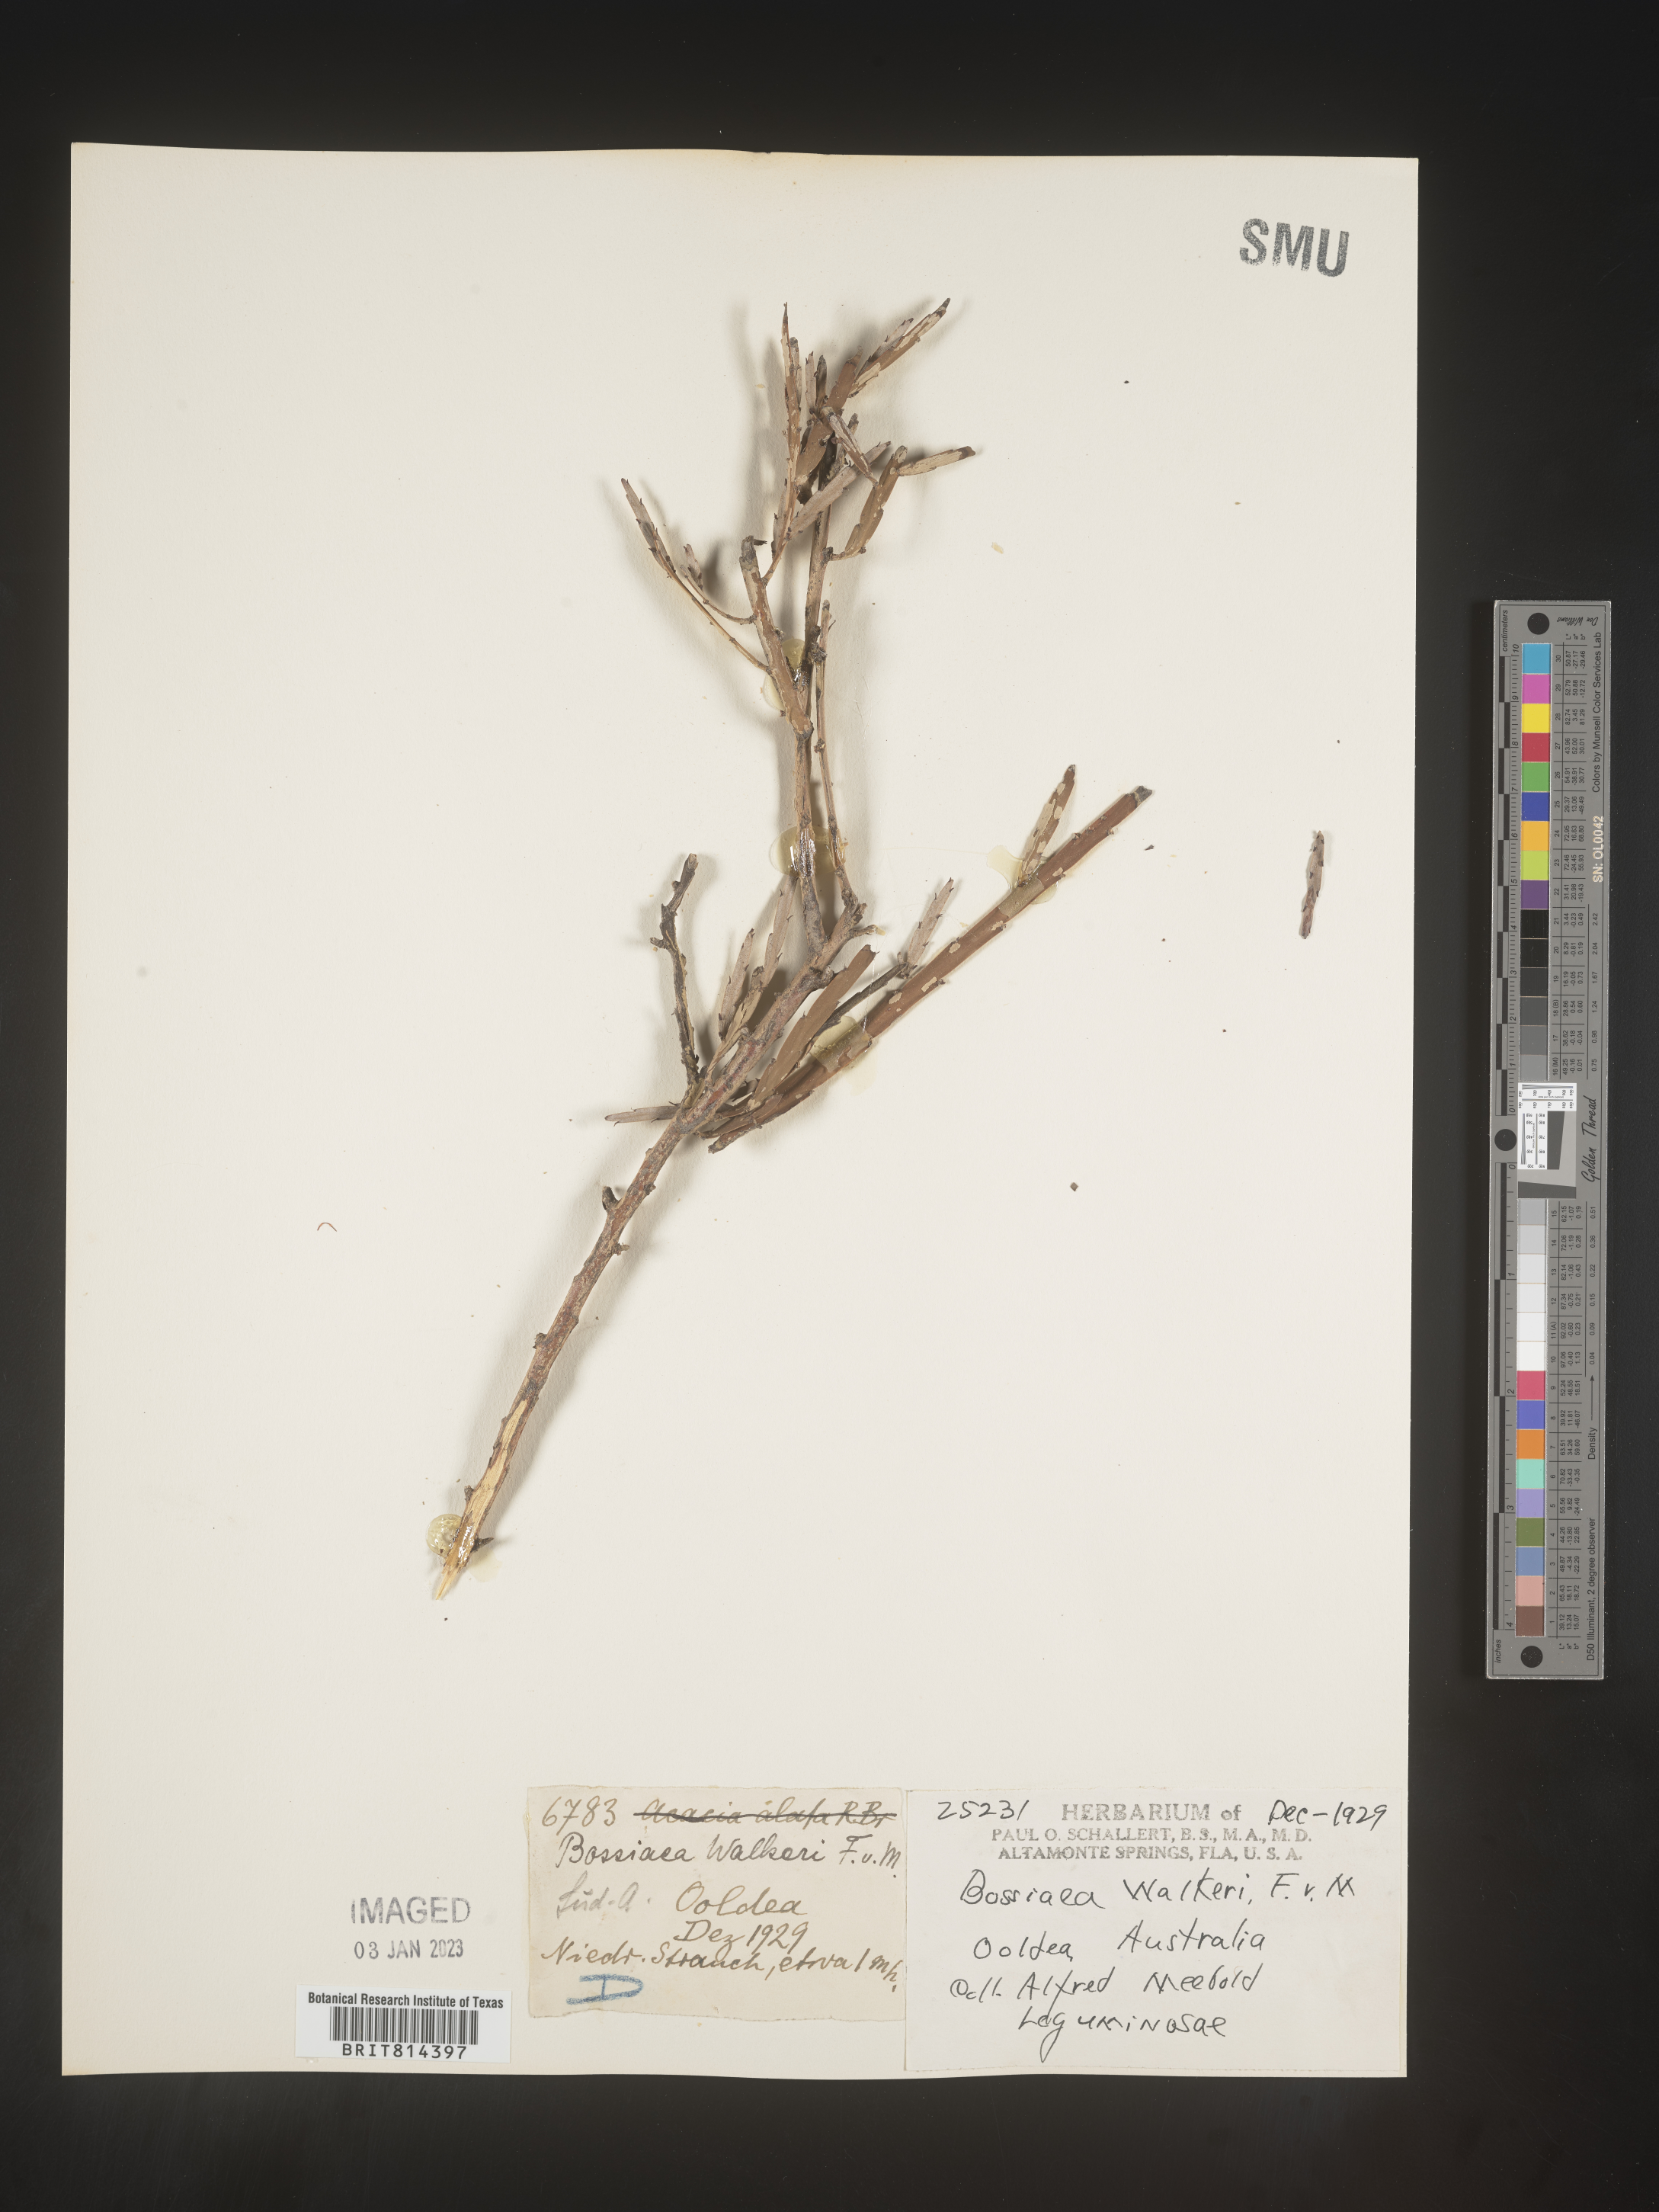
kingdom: Plantae
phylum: Tracheophyta
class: Magnoliopsida
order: Fabales
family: Fabaceae
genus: Bossiaea
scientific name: Bossiaea
